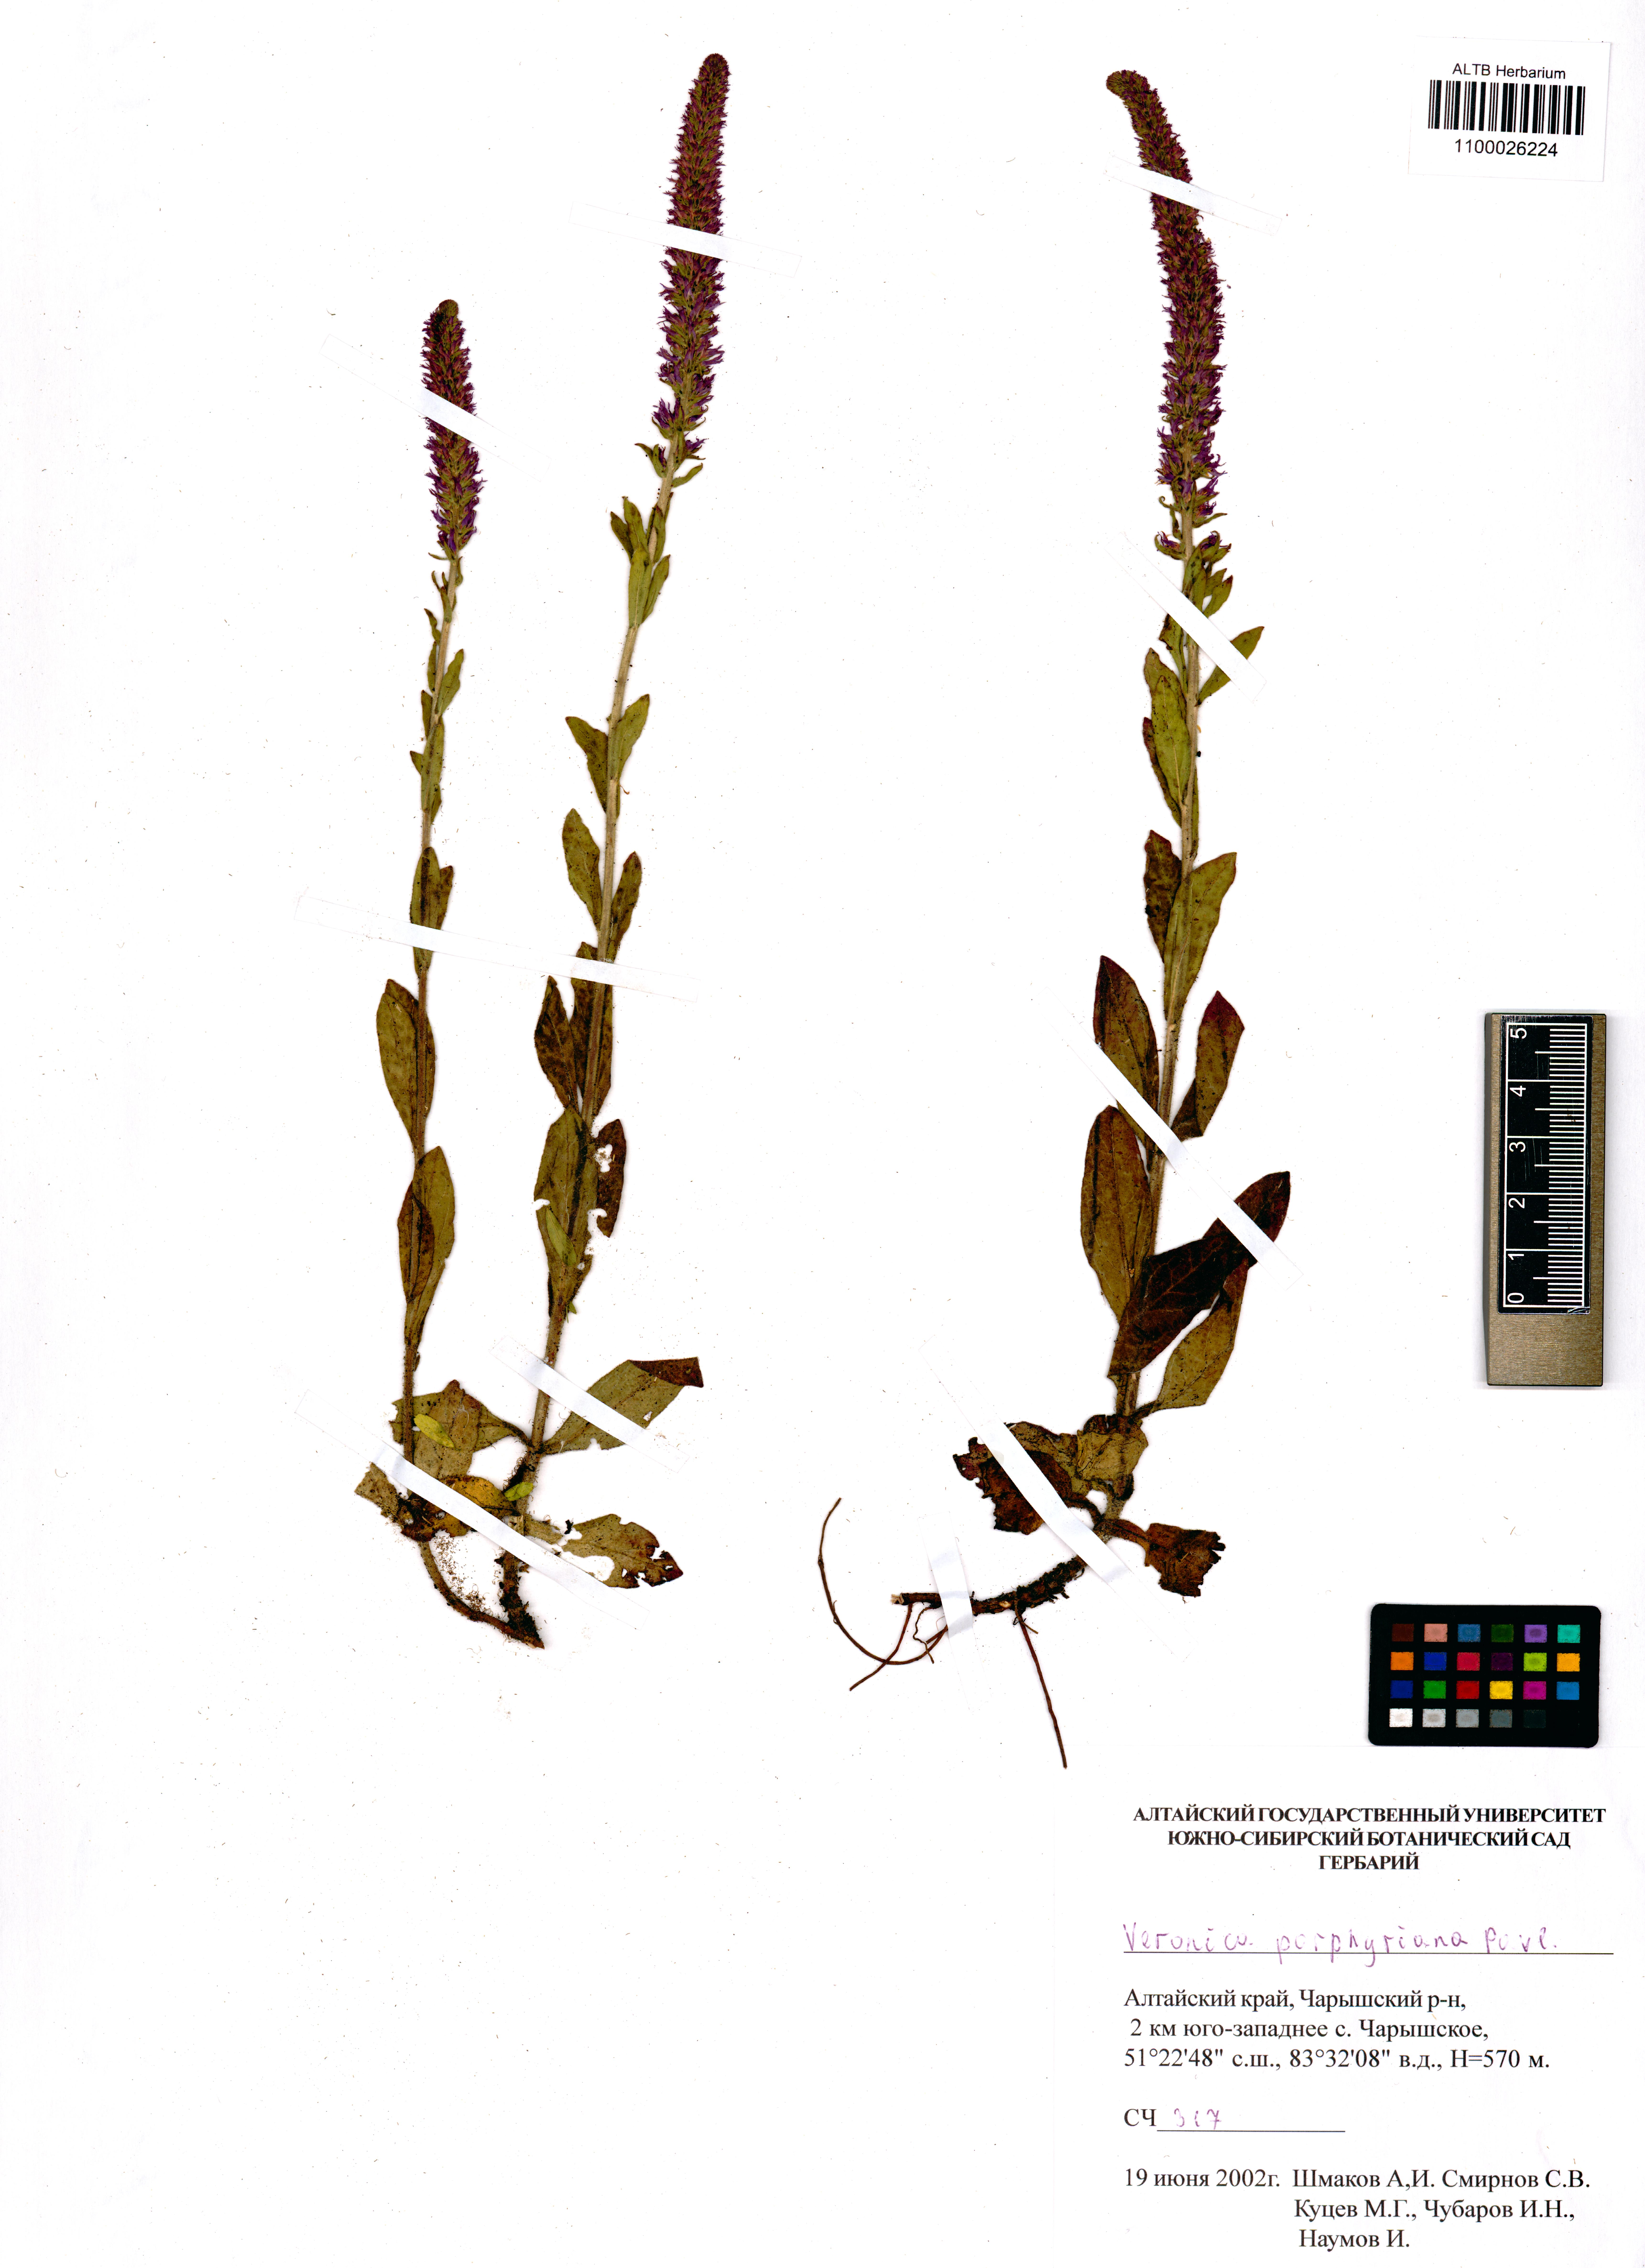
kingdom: Plantae
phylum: Tracheophyta
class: Magnoliopsida
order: Lamiales
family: Plantaginaceae
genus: Veronica
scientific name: Veronica porphyriana
